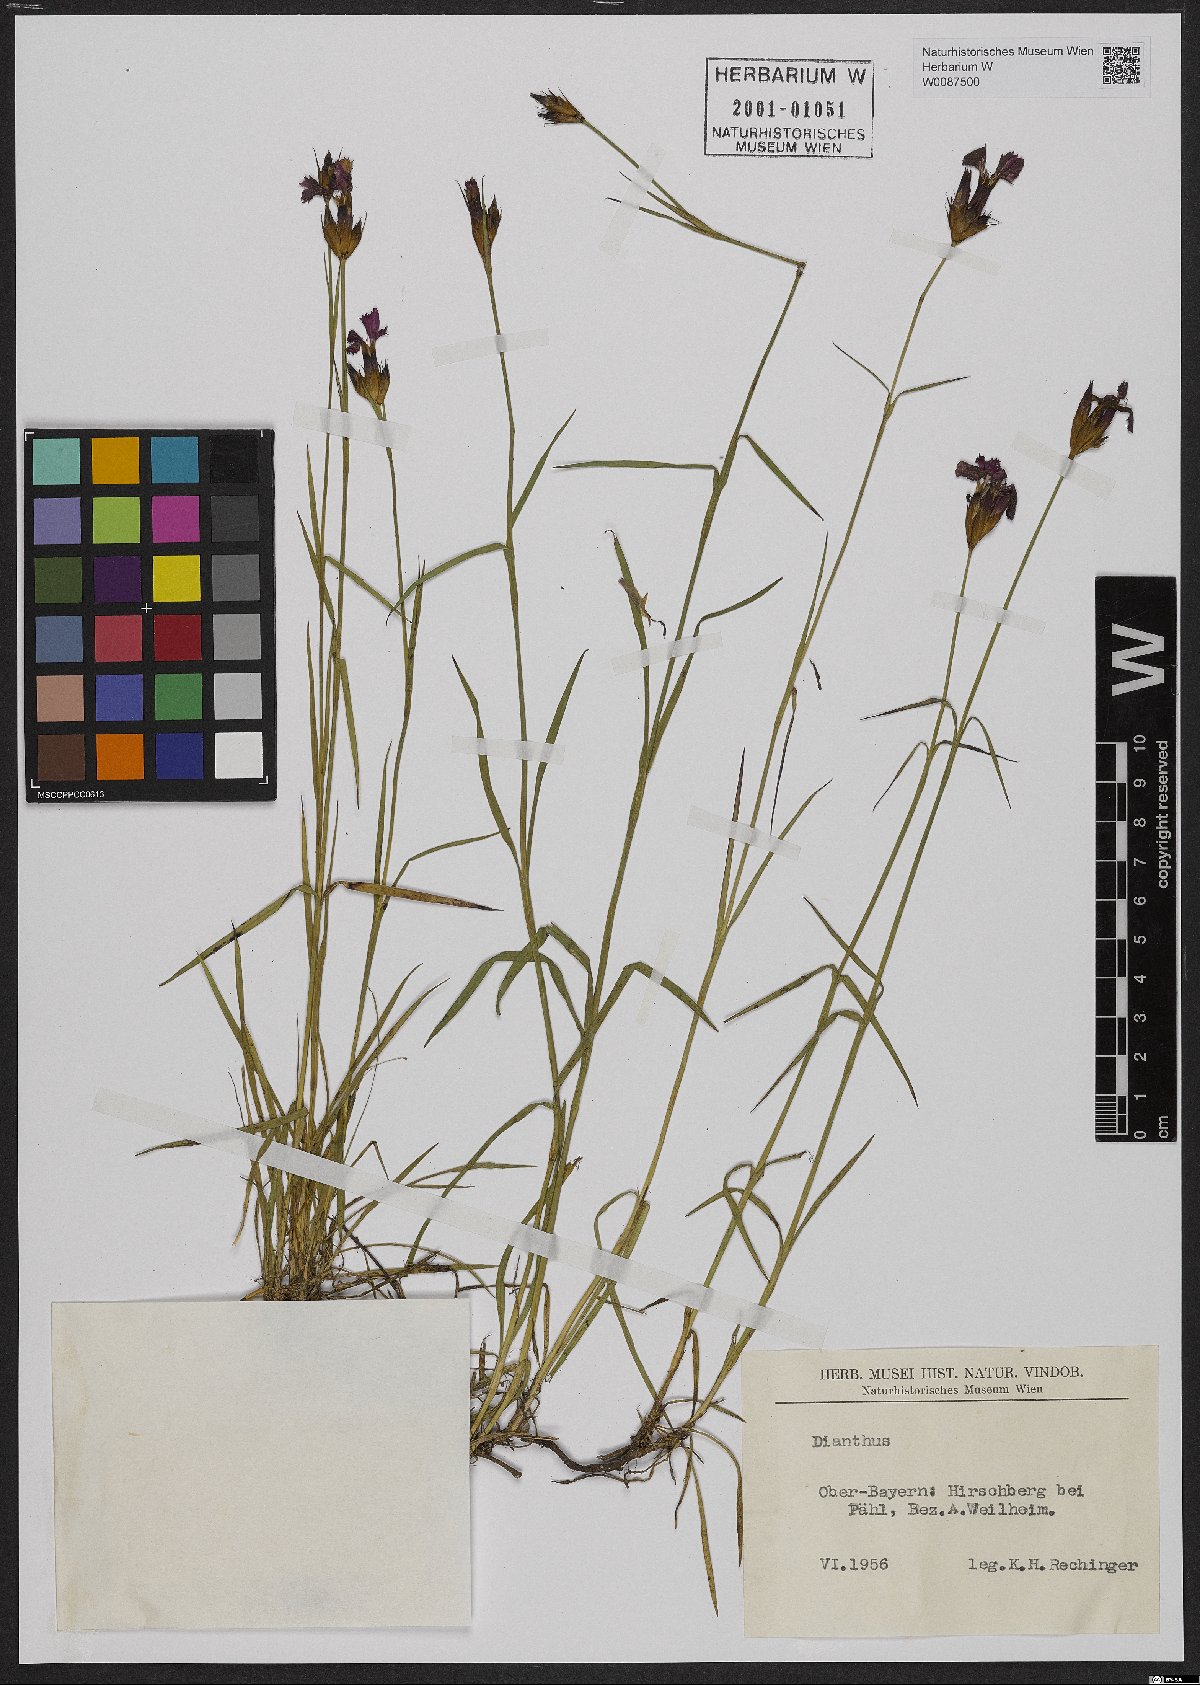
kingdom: Plantae
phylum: Tracheophyta
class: Magnoliopsida
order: Caryophyllales
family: Caryophyllaceae
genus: Dianthus
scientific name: Dianthus carthusianorum
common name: Carthusian pink
